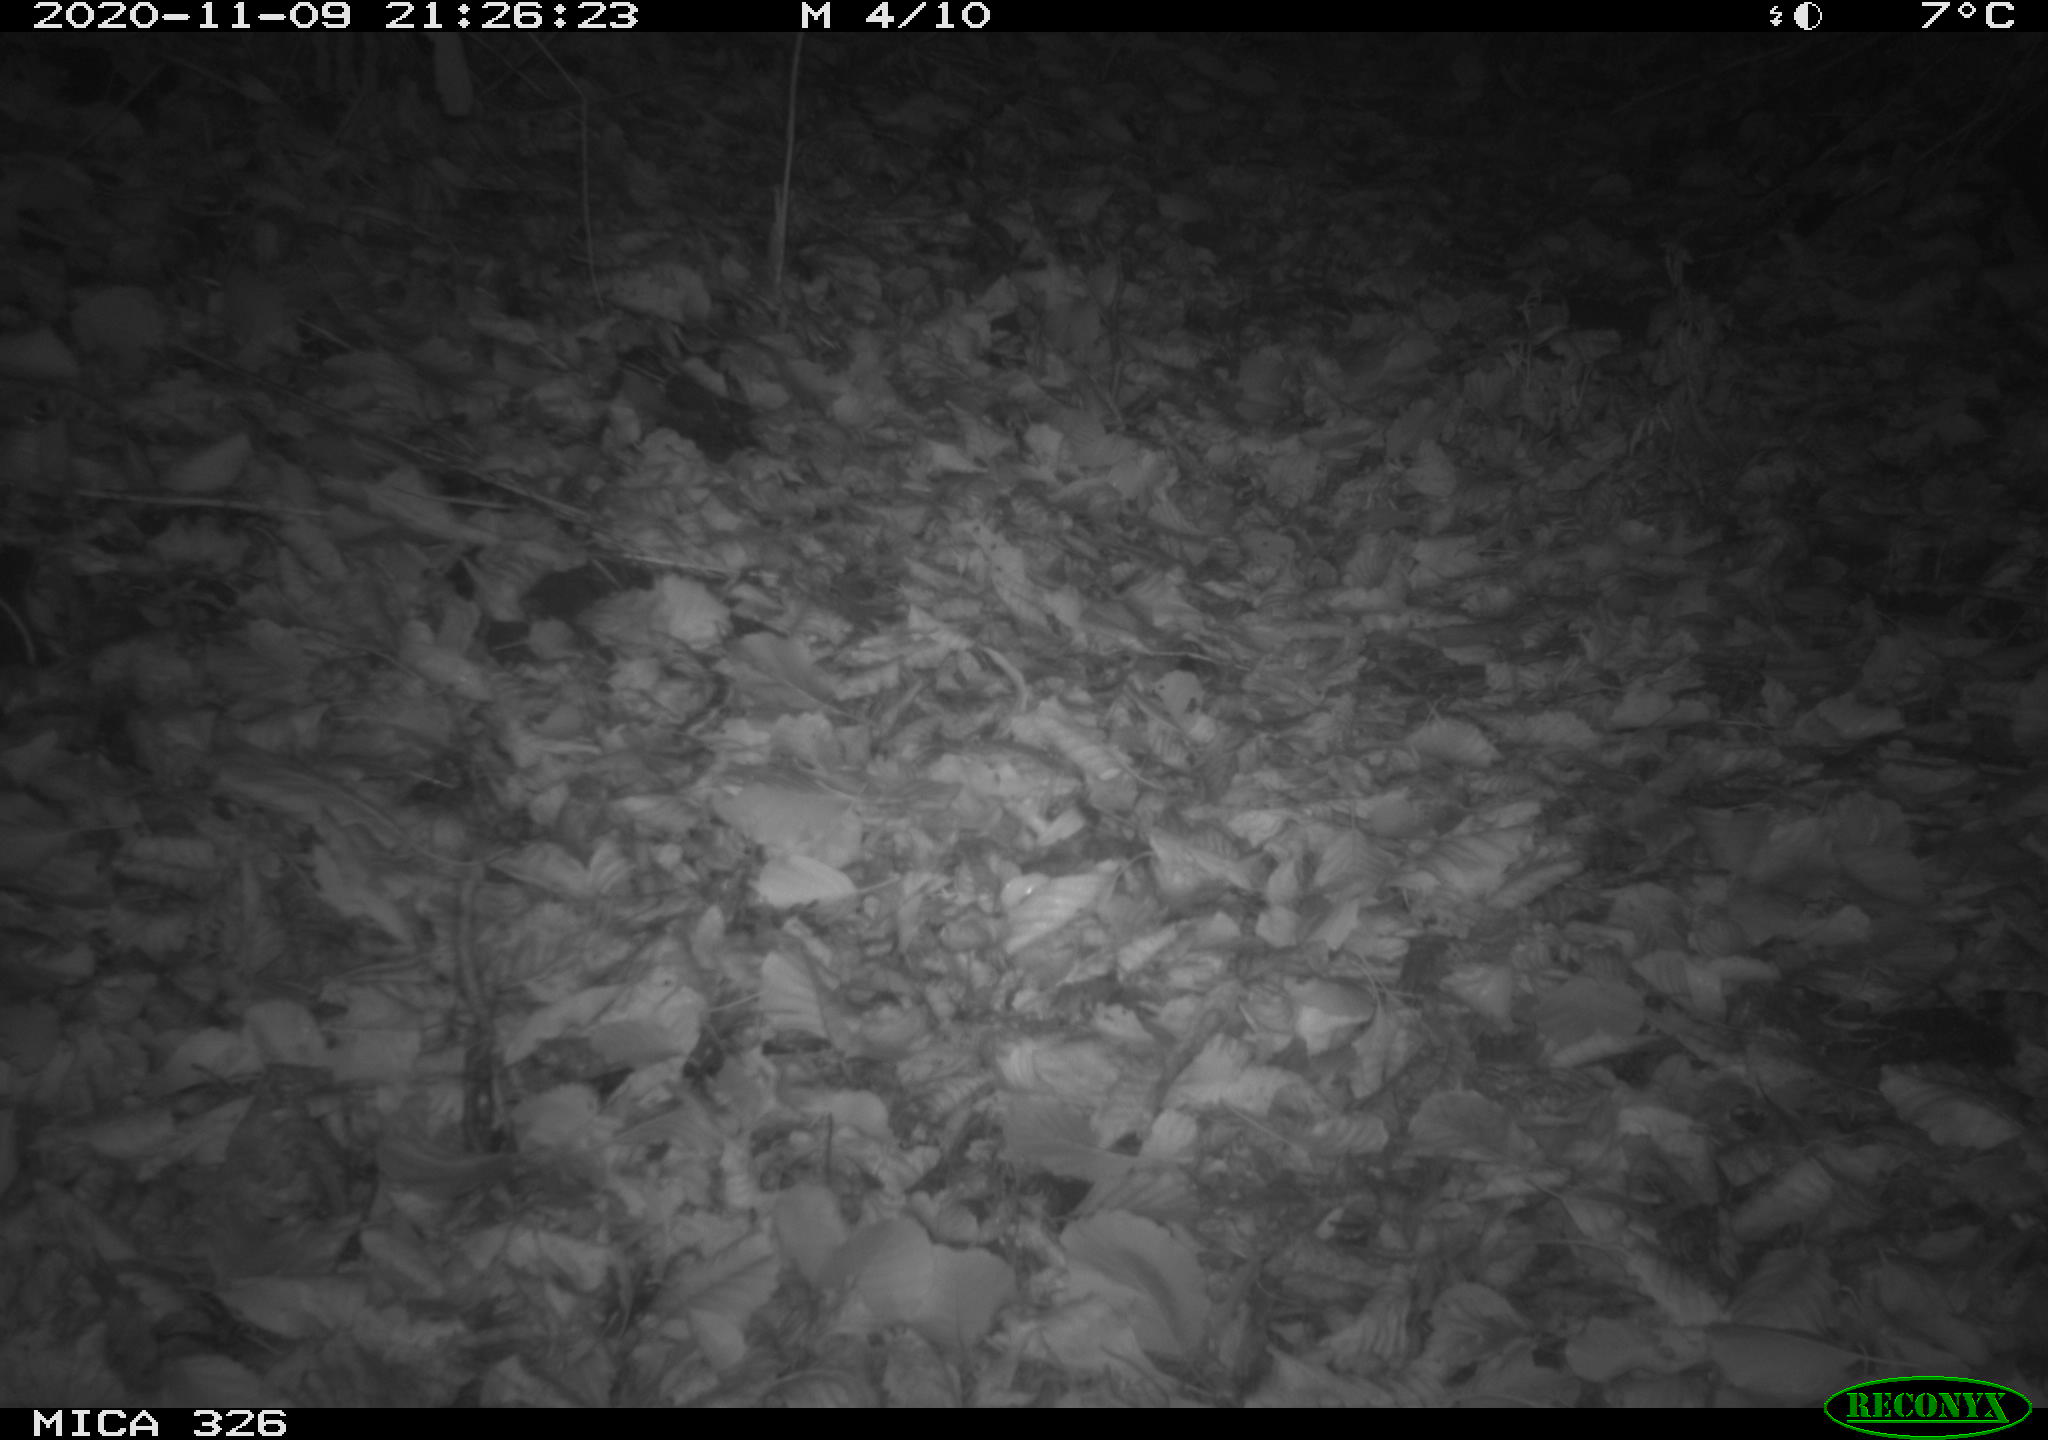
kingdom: Animalia
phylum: Chordata
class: Mammalia
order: Carnivora
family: Mustelidae
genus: Lutra
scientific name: Lutra lutra
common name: European otter
